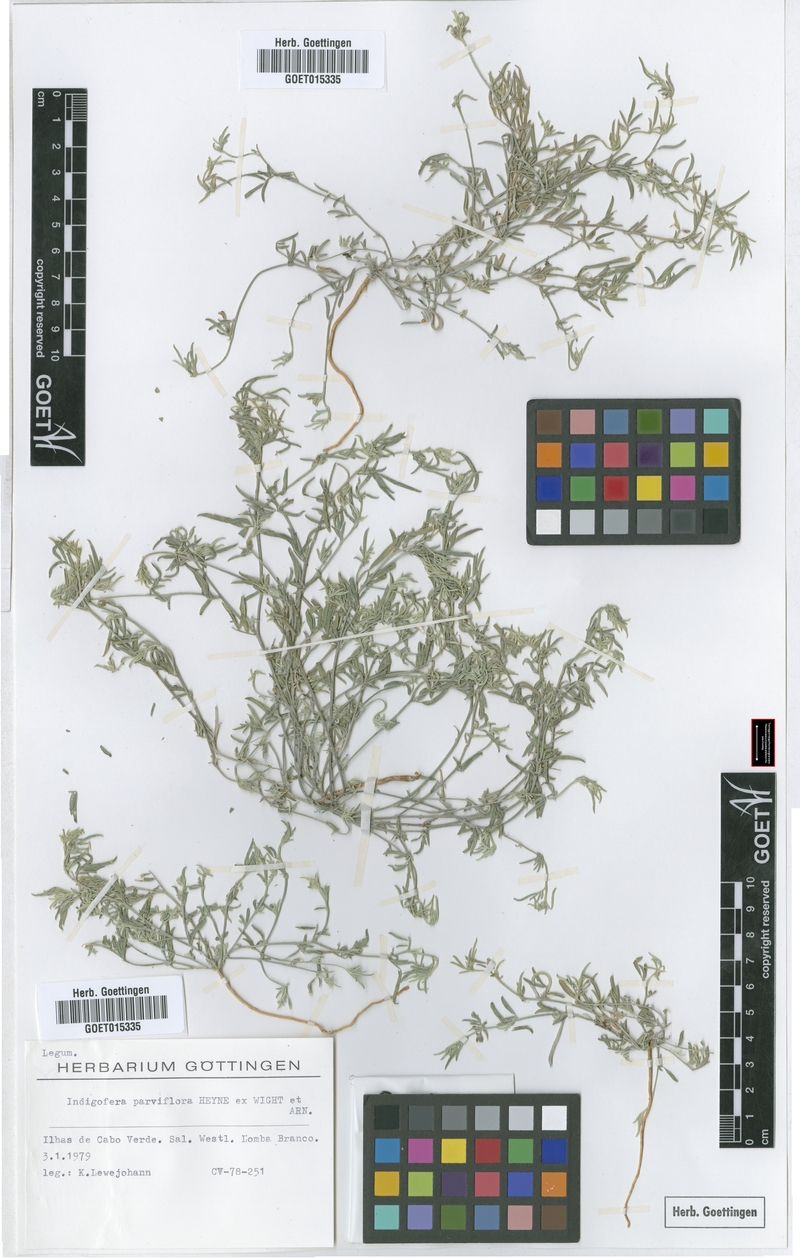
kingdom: Plantae
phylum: Tracheophyta
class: Magnoliopsida
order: Fabales
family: Fabaceae
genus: Indigastrum
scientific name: Indigastrum parviflorum
